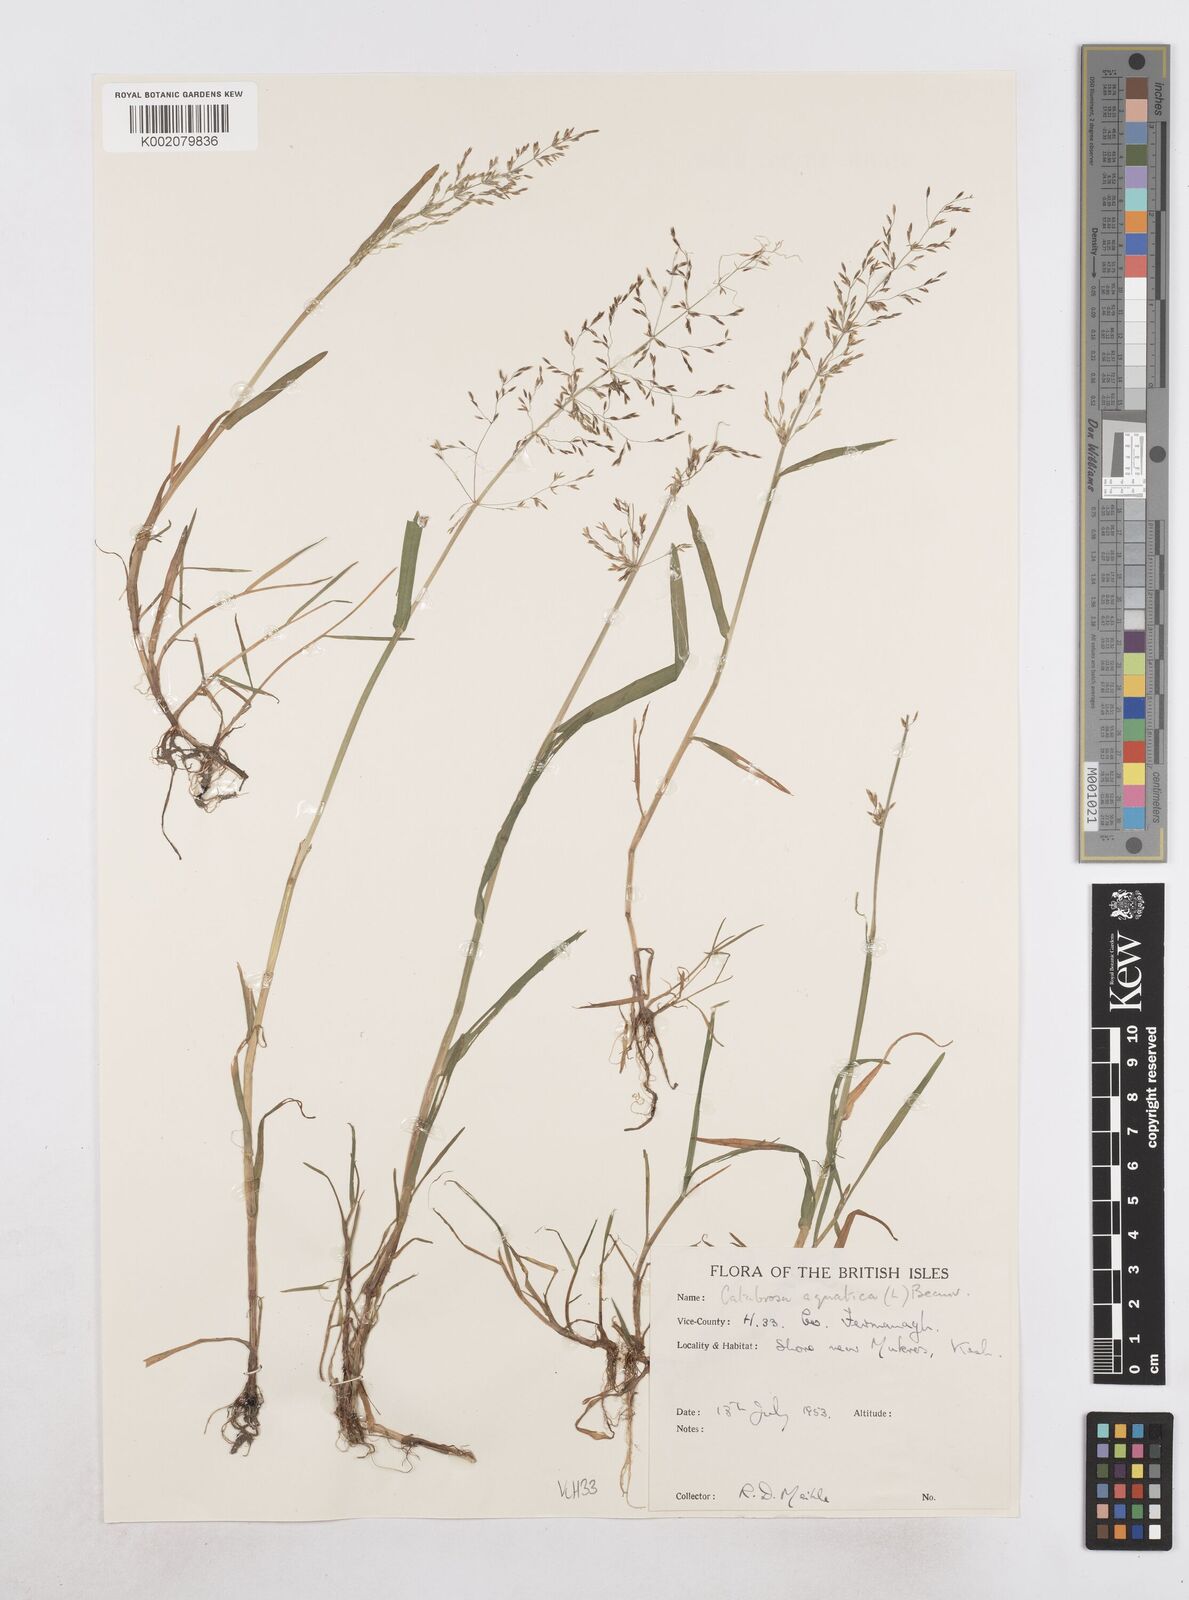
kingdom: Plantae
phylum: Tracheophyta
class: Liliopsida
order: Poales
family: Poaceae
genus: Catabrosa
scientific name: Catabrosa aquatica
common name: Whorl-grass
